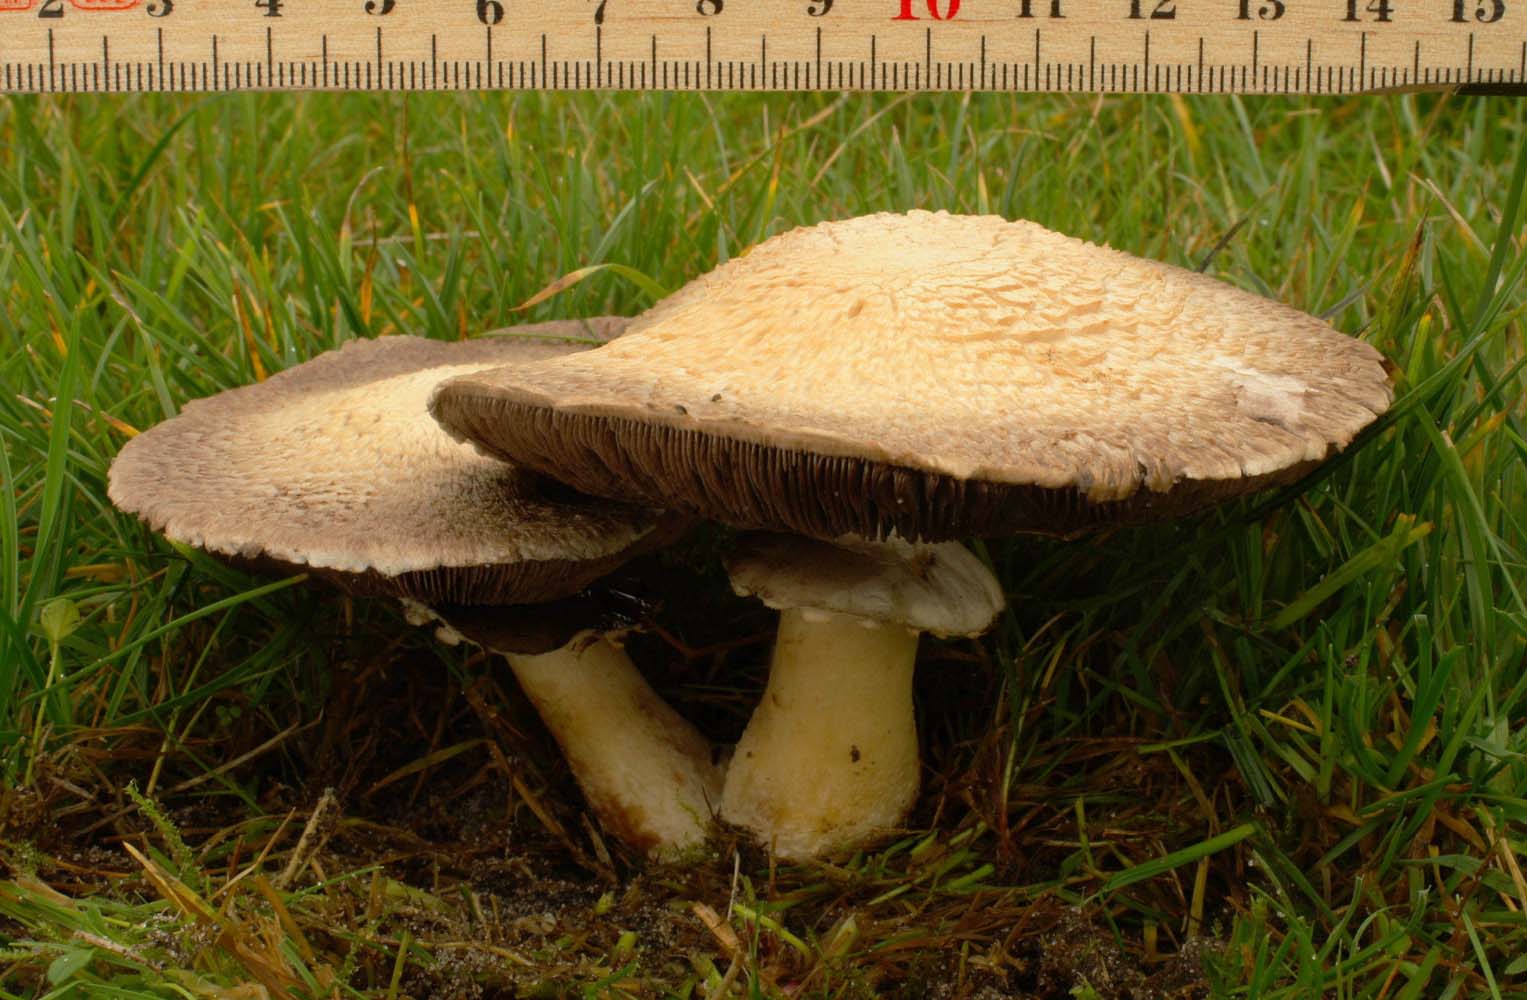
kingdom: Fungi
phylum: Basidiomycota
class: Agaricomycetes
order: Agaricales
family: Agaricaceae
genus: Agaricus
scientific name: Agaricus
